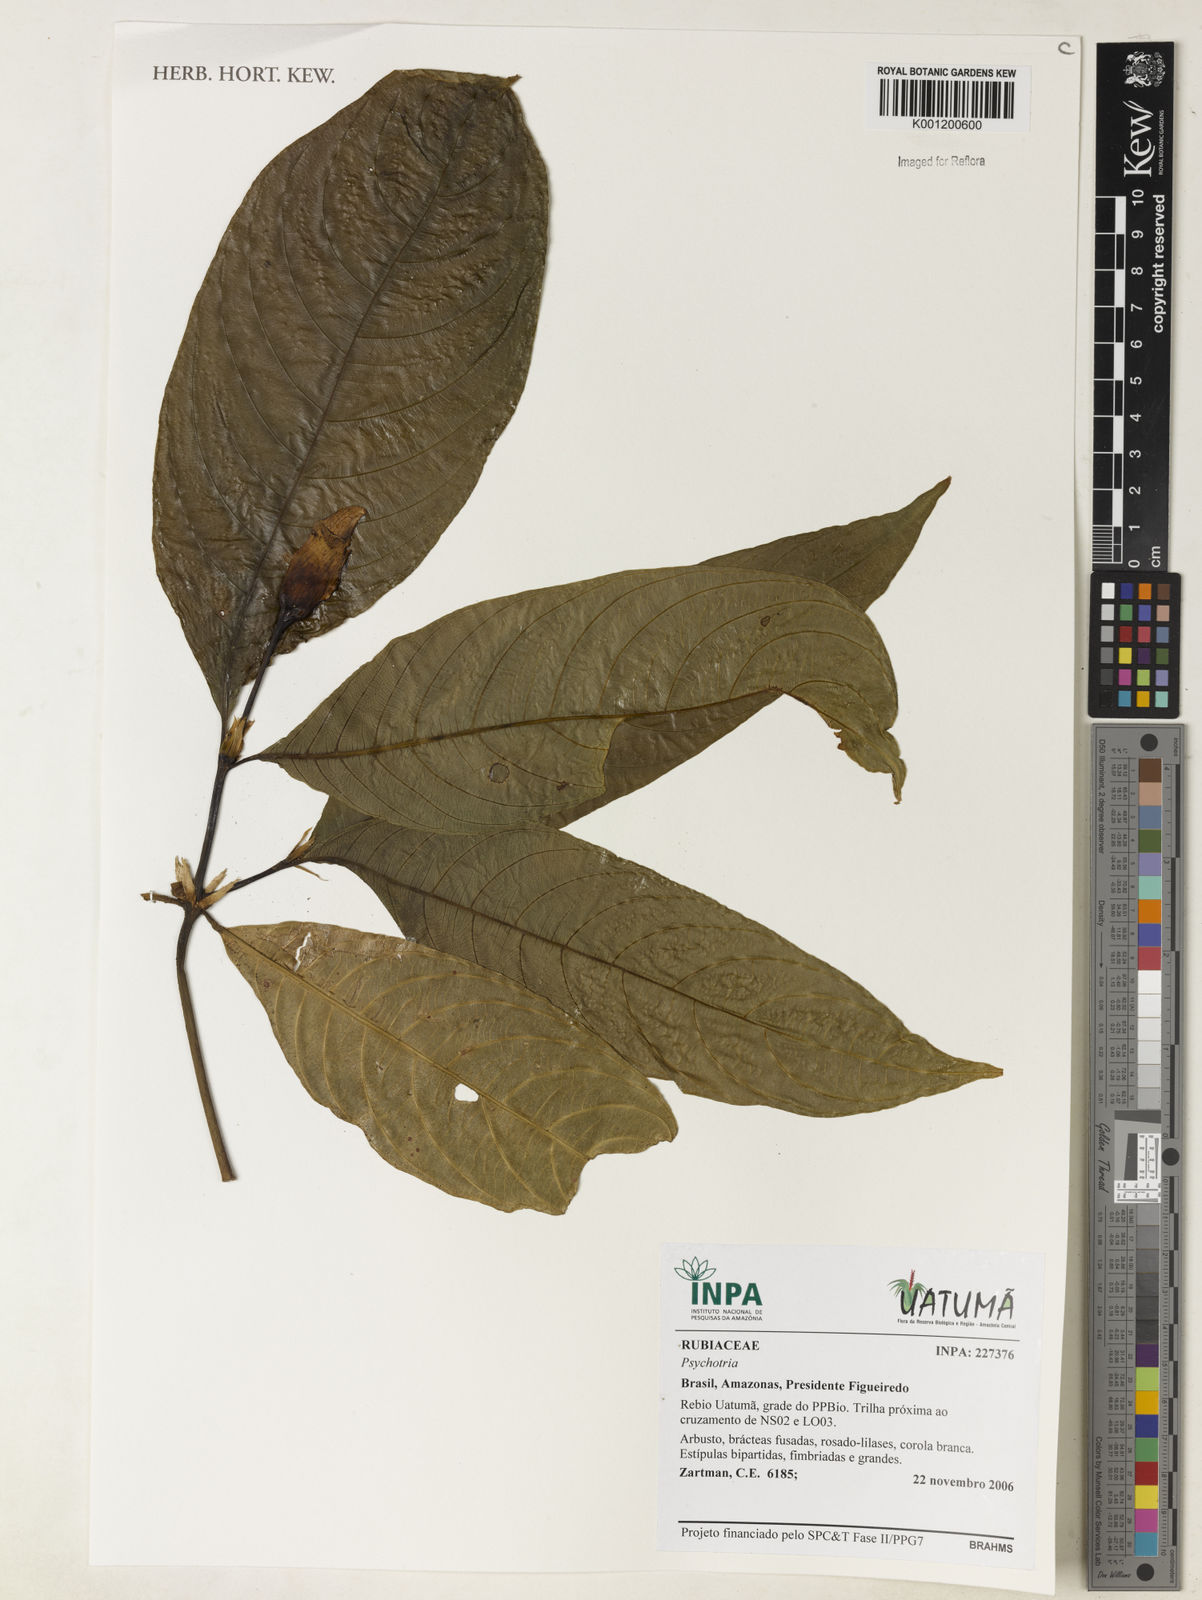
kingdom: Plantae
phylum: Tracheophyta
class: Magnoliopsida
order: Gentianales
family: Rubiaceae
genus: Psychotria
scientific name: Psychotria
